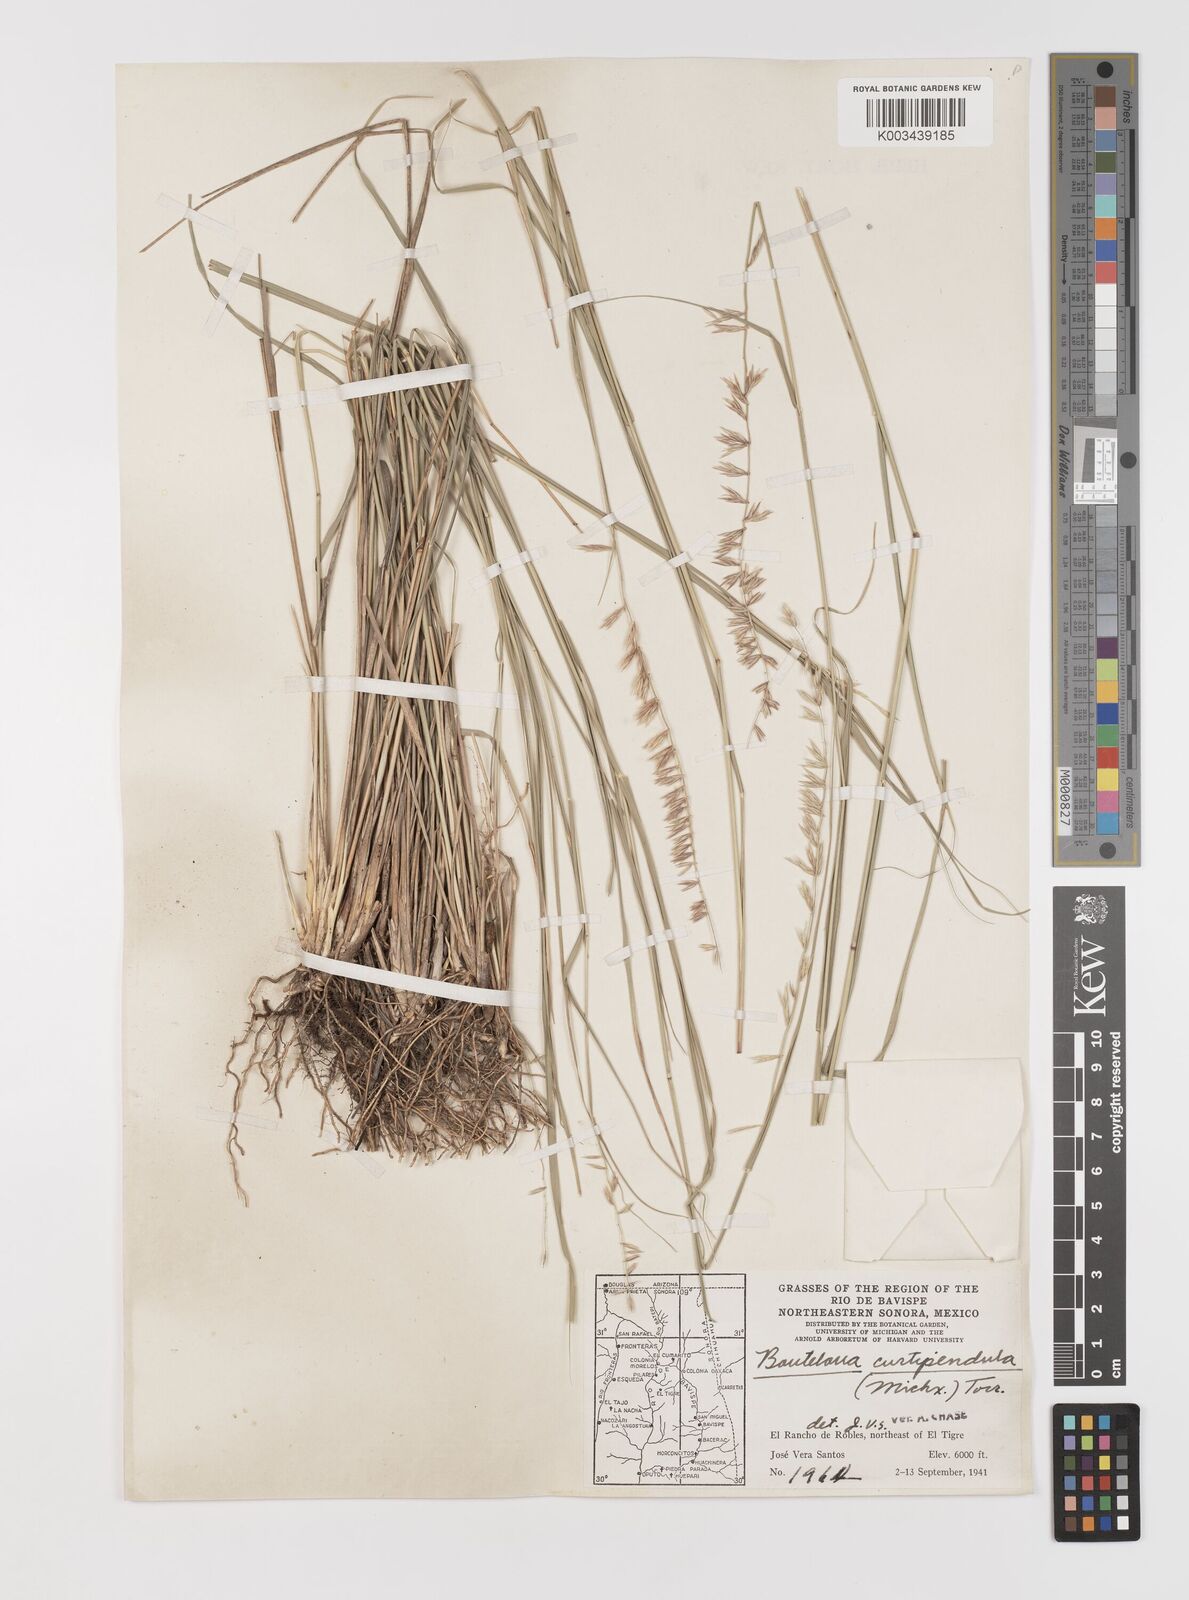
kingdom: Plantae
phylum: Tracheophyta
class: Liliopsida
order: Poales
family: Poaceae
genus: Bouteloua
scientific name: Bouteloua curtipendula
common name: Side-oats grama
